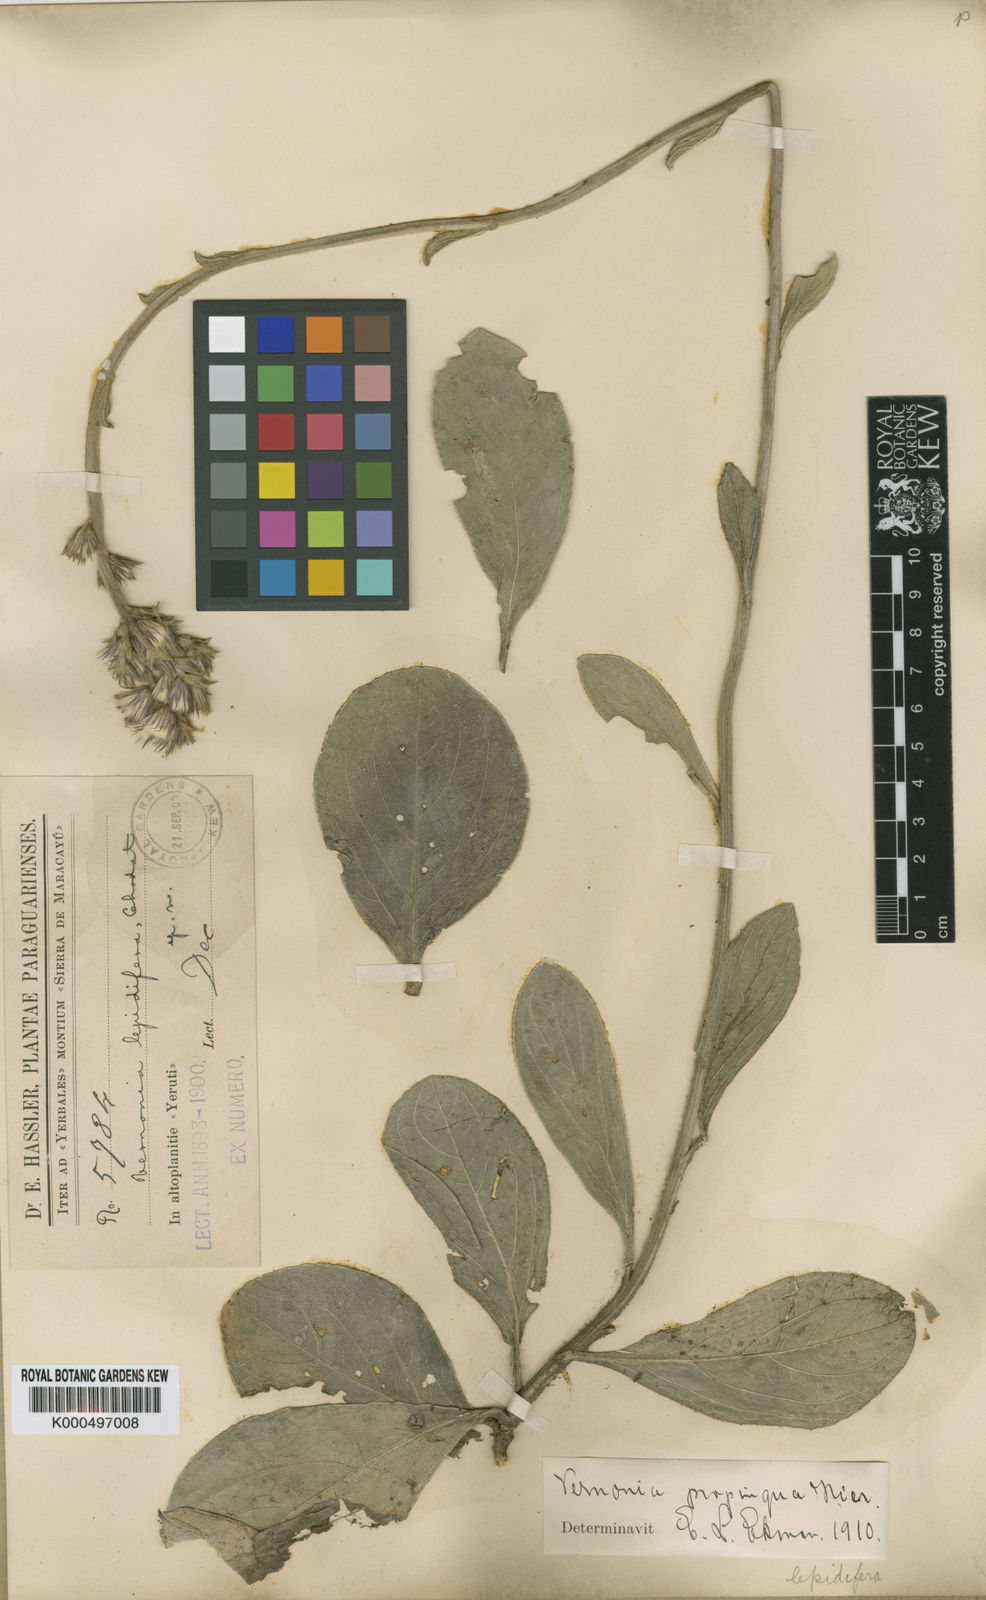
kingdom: Plantae
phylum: Tracheophyta
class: Magnoliopsida
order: Asterales
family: Asteraceae
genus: Chrysolaena
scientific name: Chrysolaena propinqua
